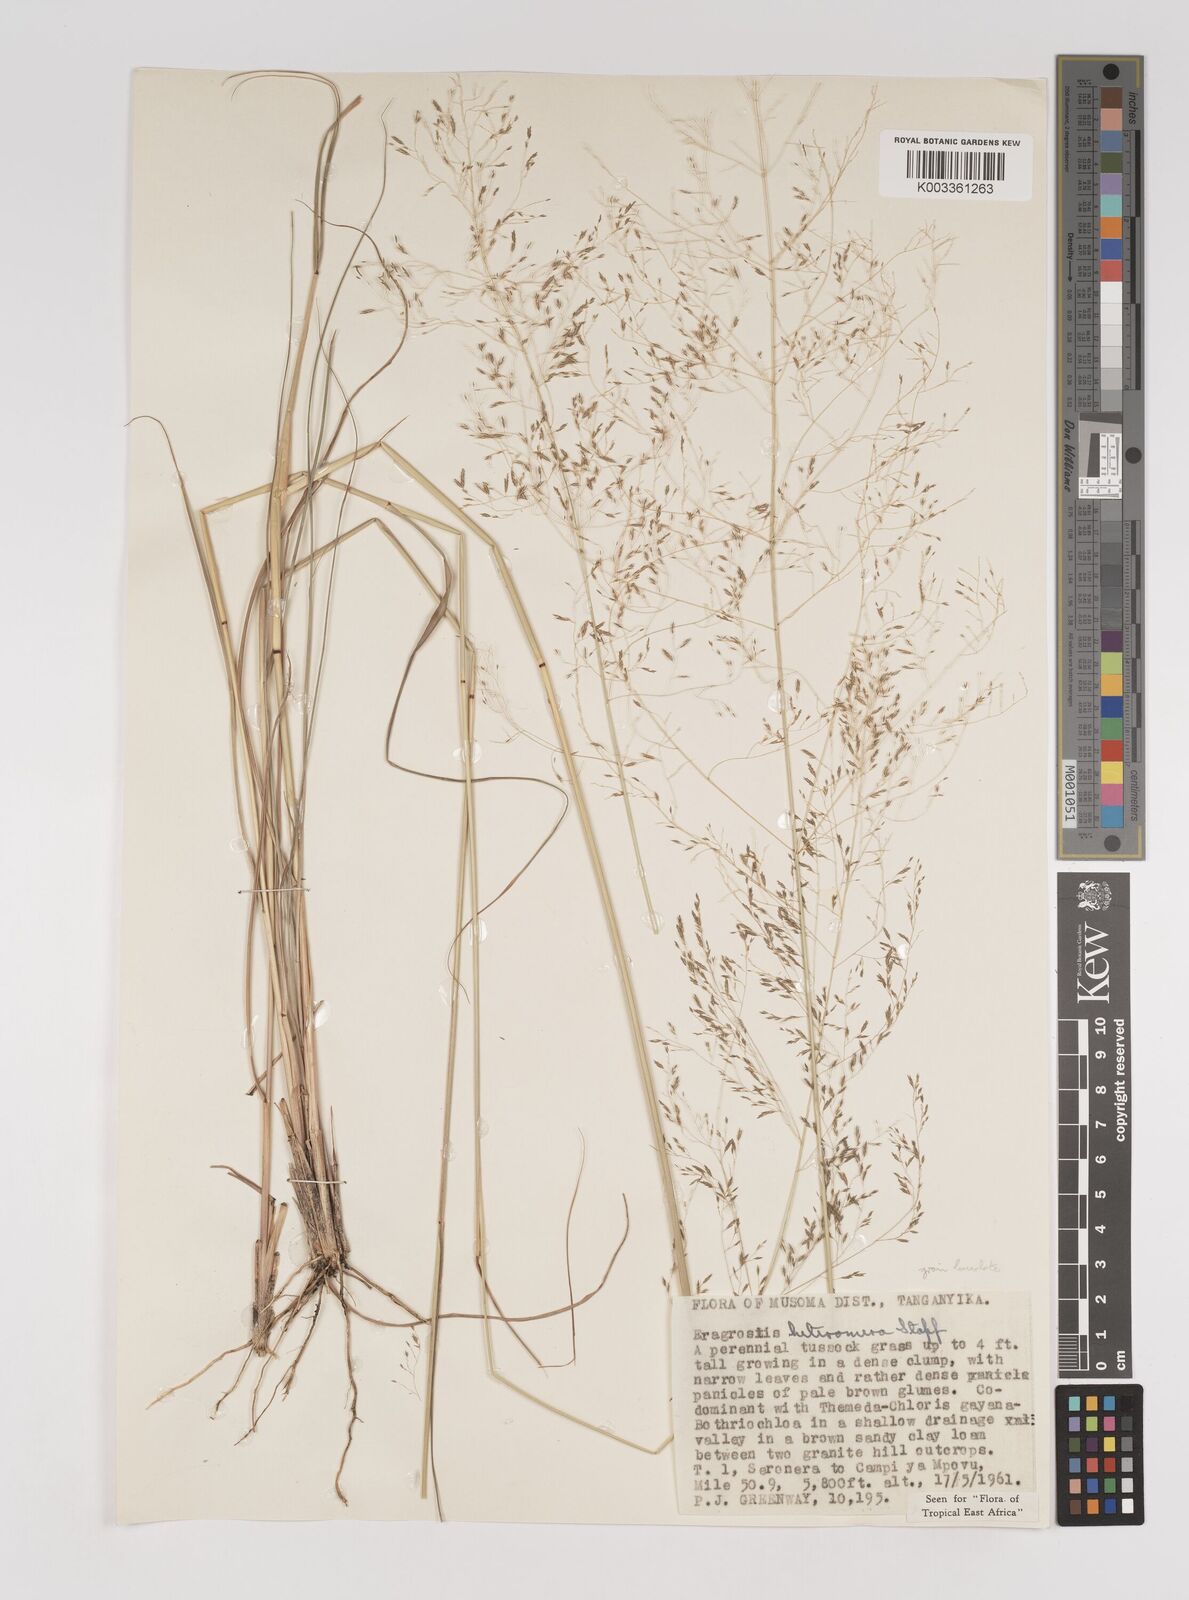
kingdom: Plantae
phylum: Tracheophyta
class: Liliopsida
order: Poales
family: Poaceae
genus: Eragrostis
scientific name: Eragrostis heteromera
